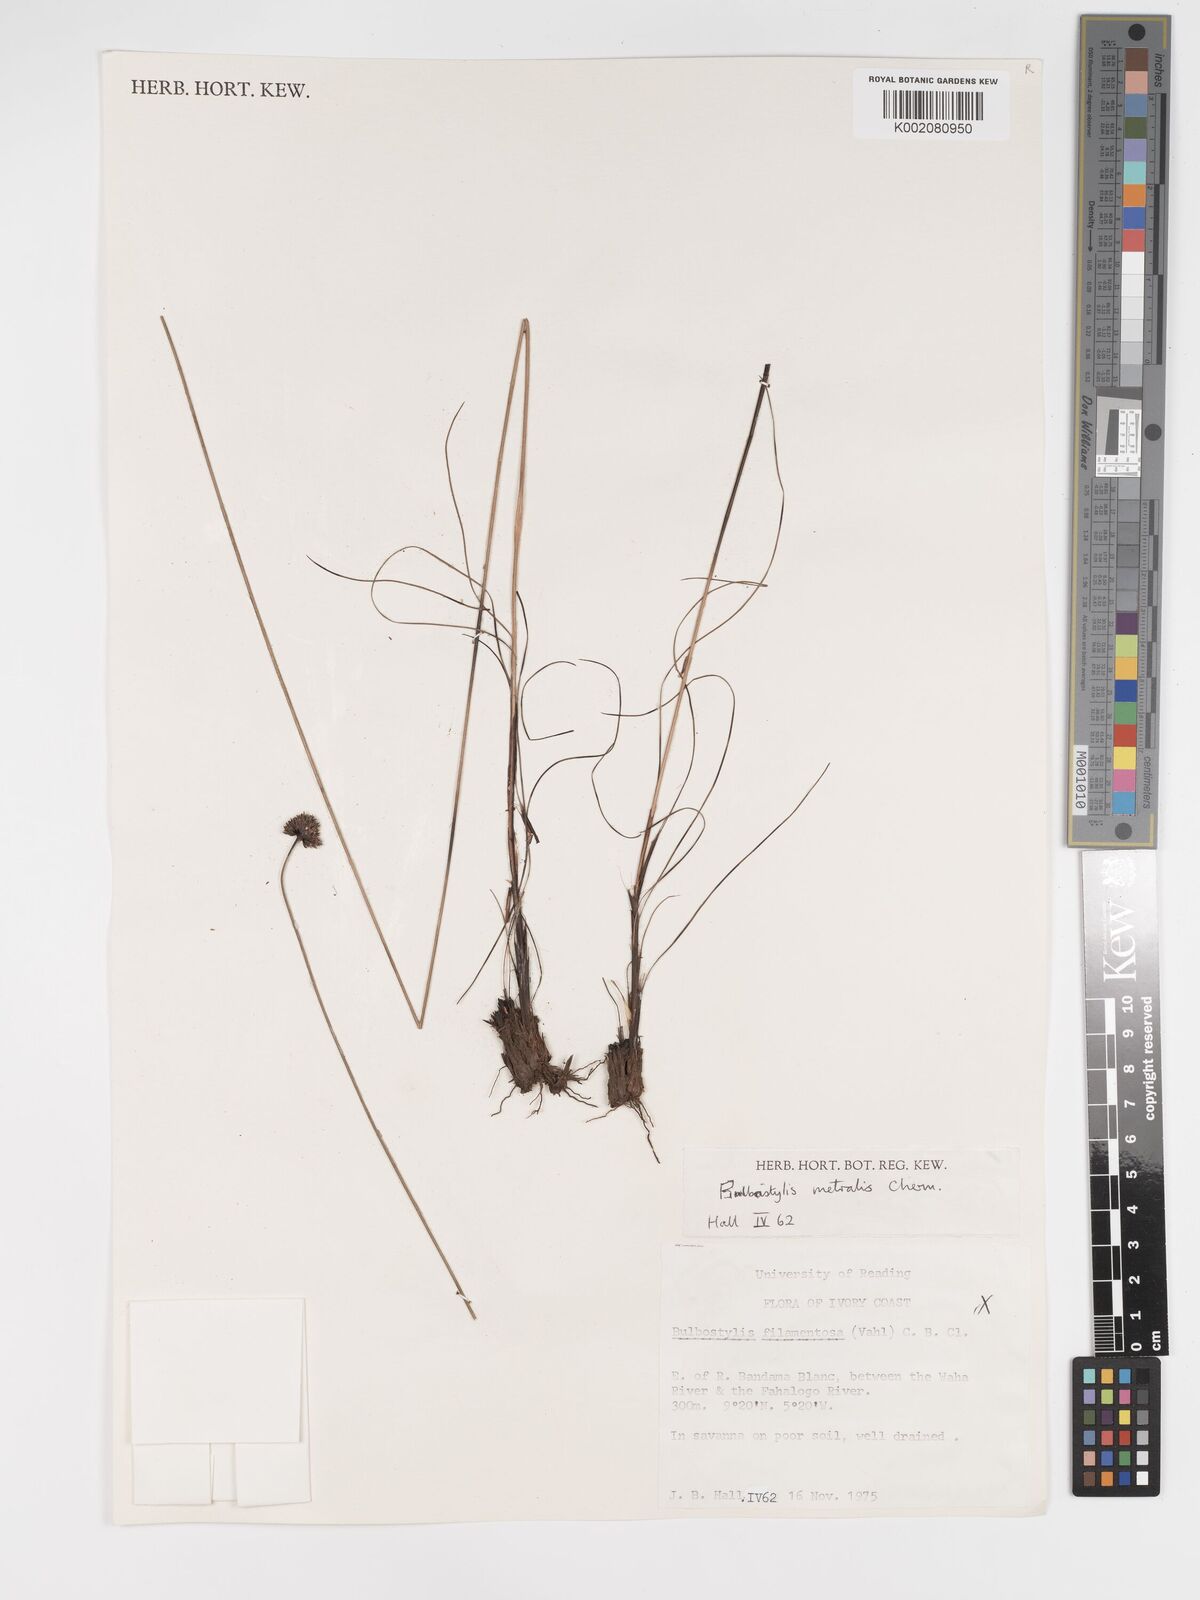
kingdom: Plantae
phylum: Tracheophyta
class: Liliopsida
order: Poales
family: Cyperaceae
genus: Bulbostylis
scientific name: Bulbostylis filamentosa
